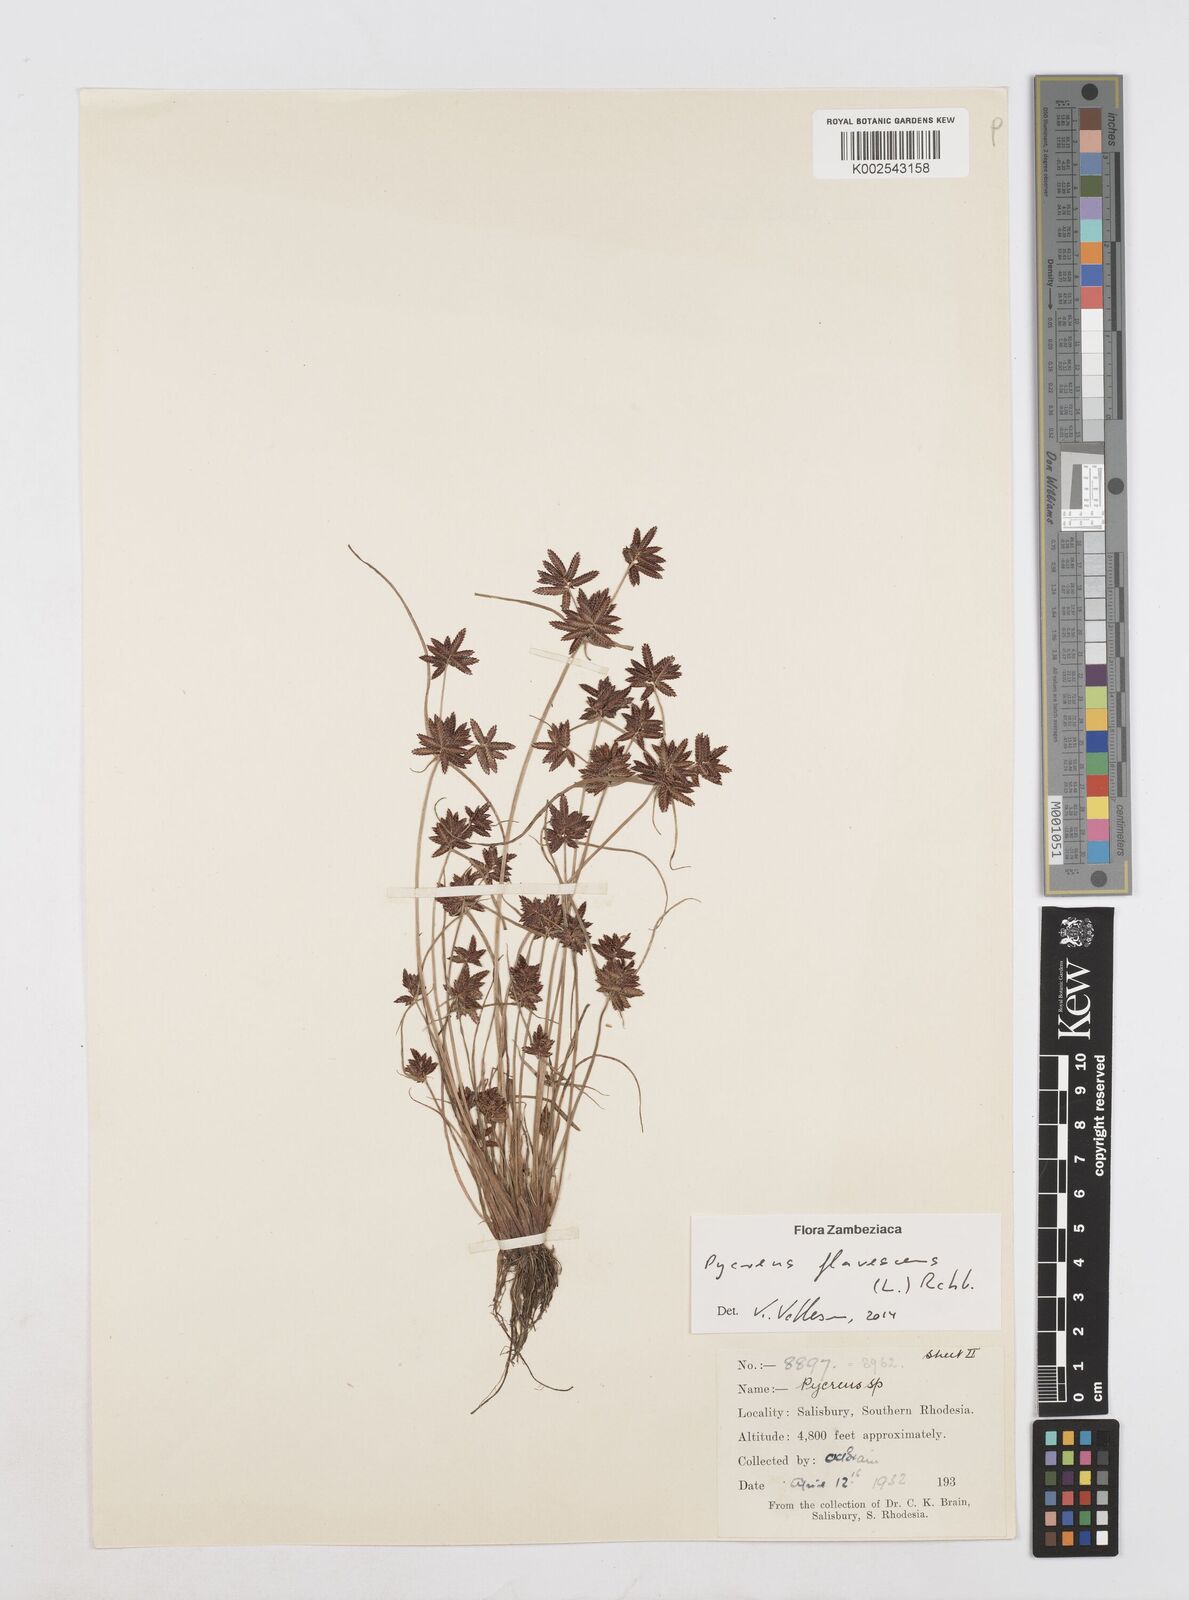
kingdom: Plantae
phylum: Tracheophyta
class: Liliopsida
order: Poales
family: Cyperaceae
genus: Cyperus
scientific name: Cyperus flavescens
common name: Yellow galingale
